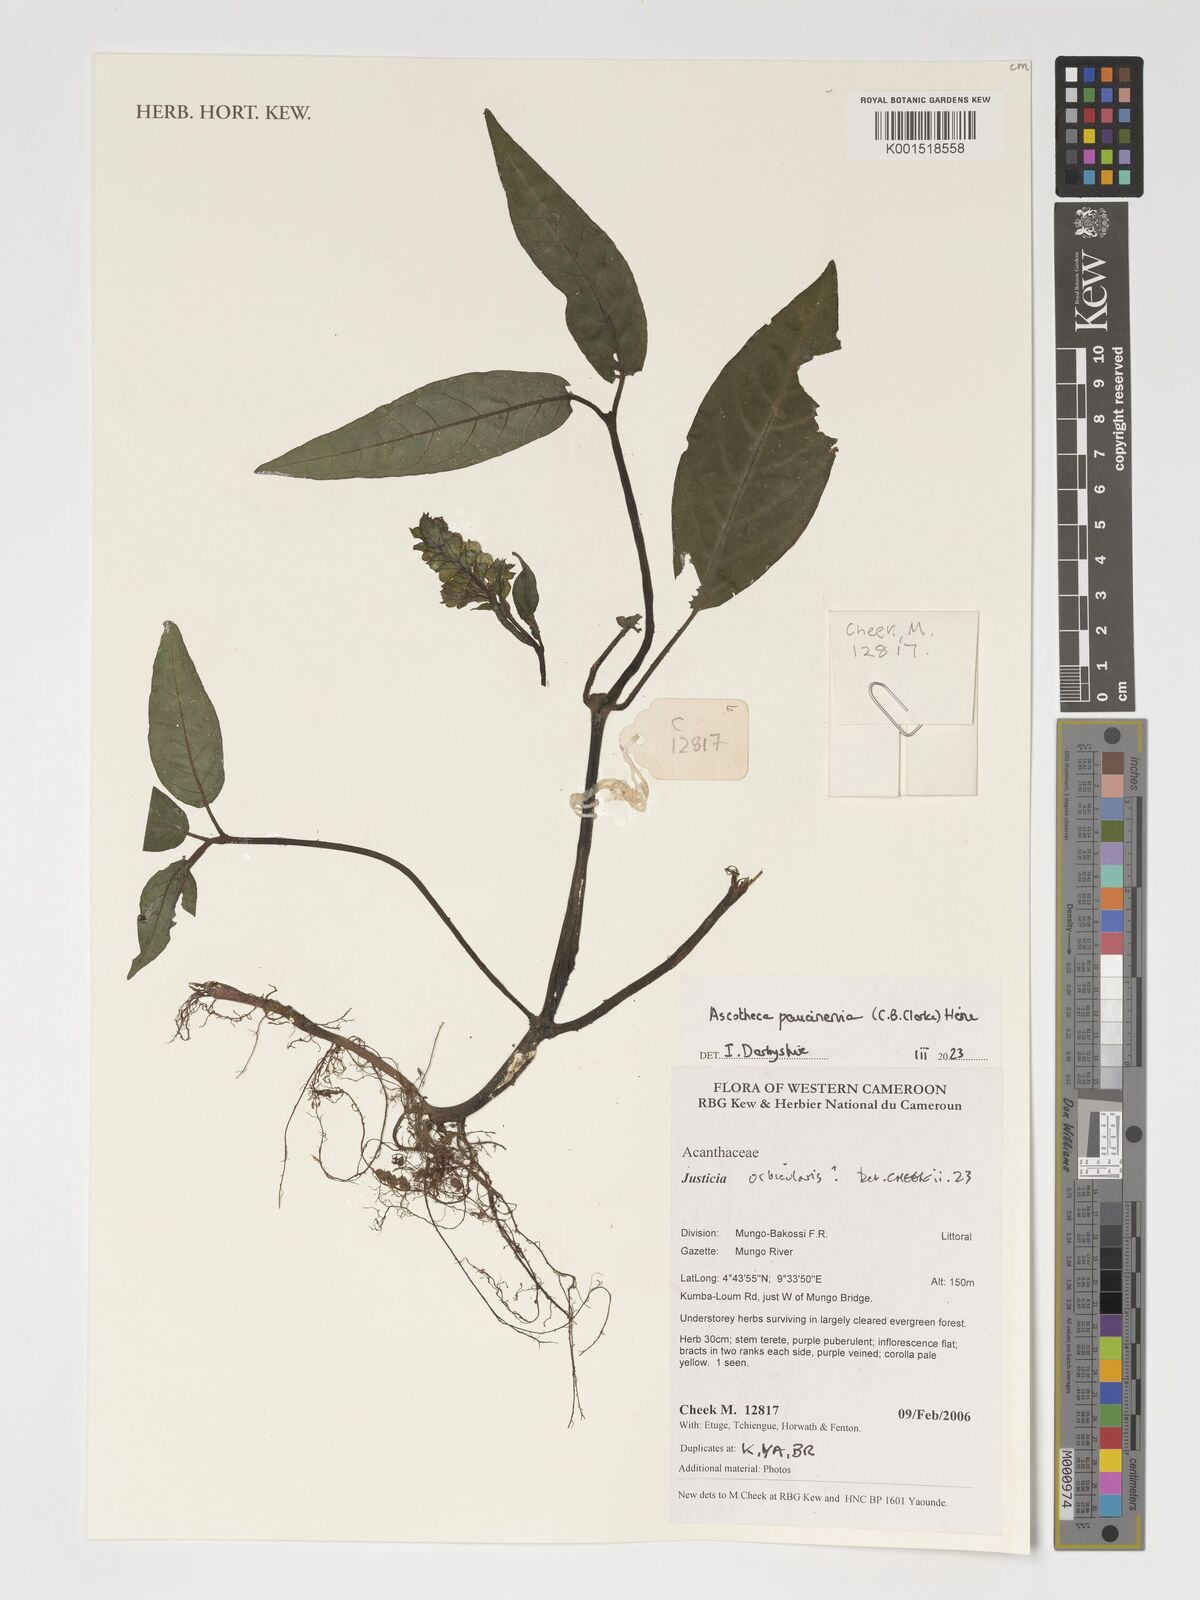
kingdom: Plantae
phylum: Tracheophyta
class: Magnoliopsida
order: Lamiales
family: Acanthaceae
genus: Ascotheca
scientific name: Ascotheca paucinervia
